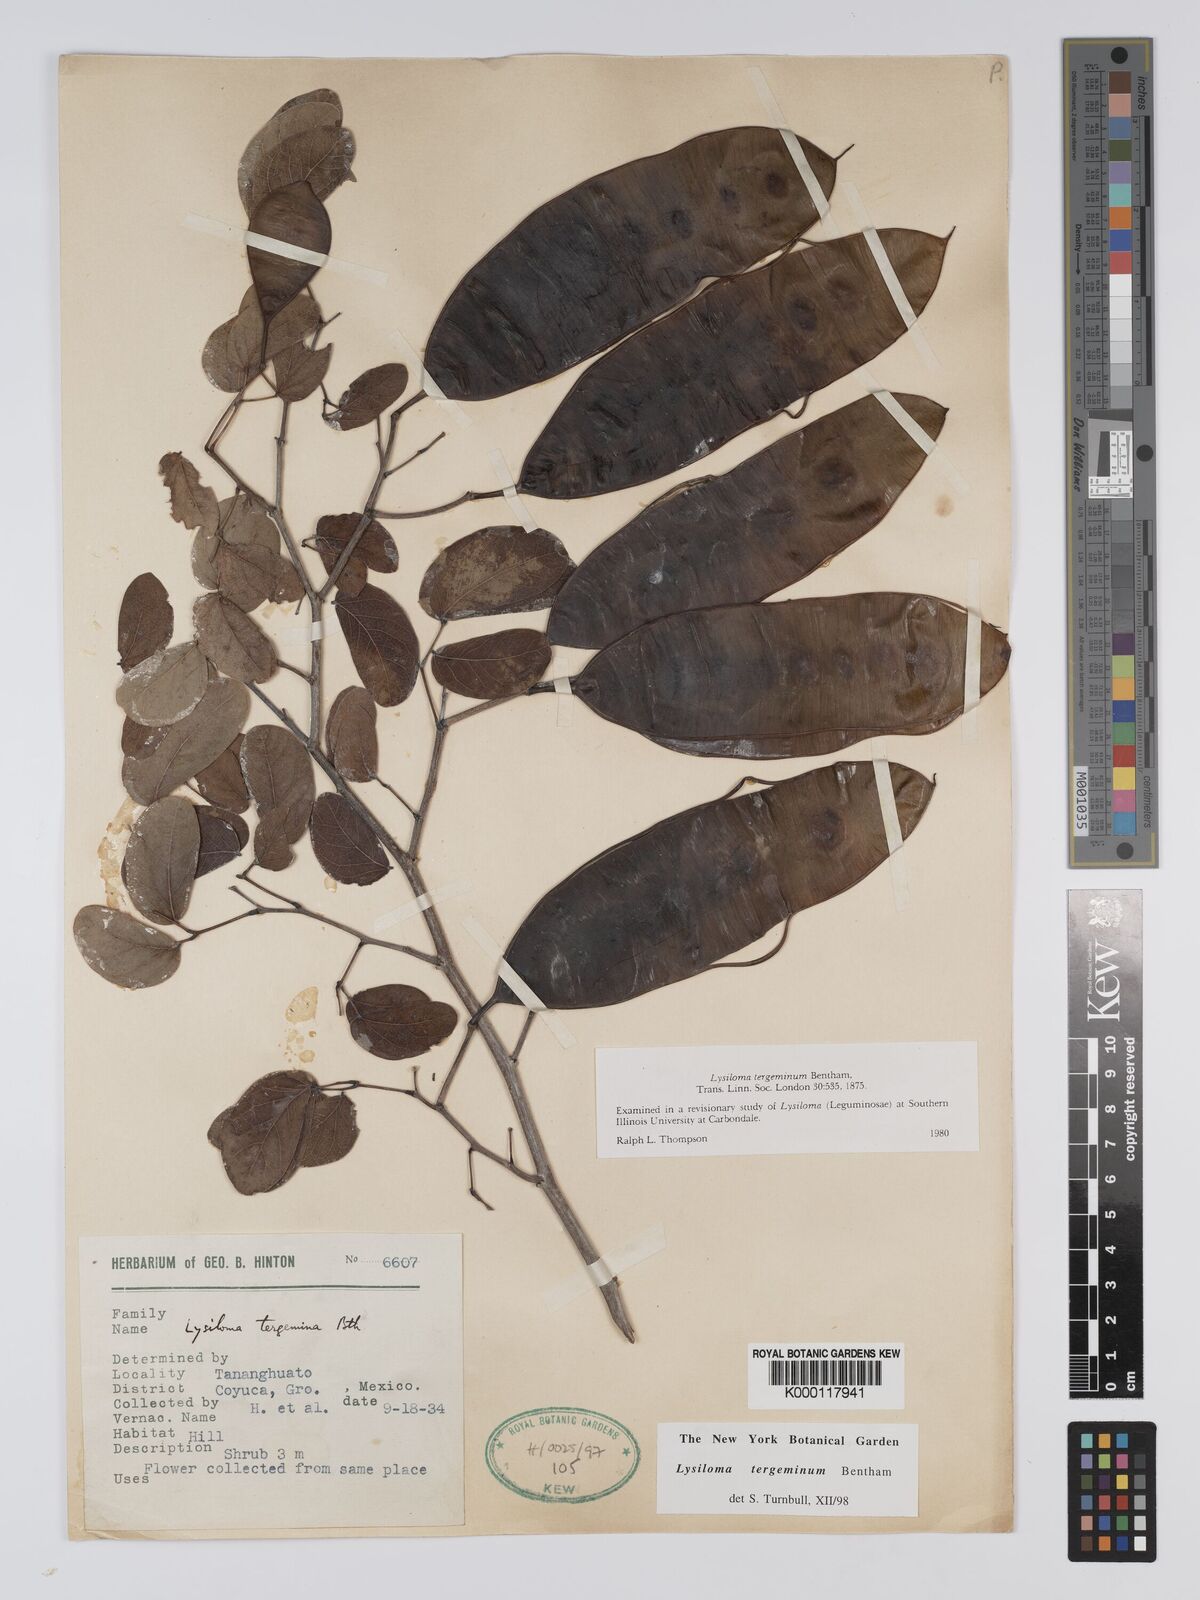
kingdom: Plantae
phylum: Tracheophyta
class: Magnoliopsida
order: Fabales
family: Fabaceae
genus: Lysiloma
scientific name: Lysiloma tergeminum
